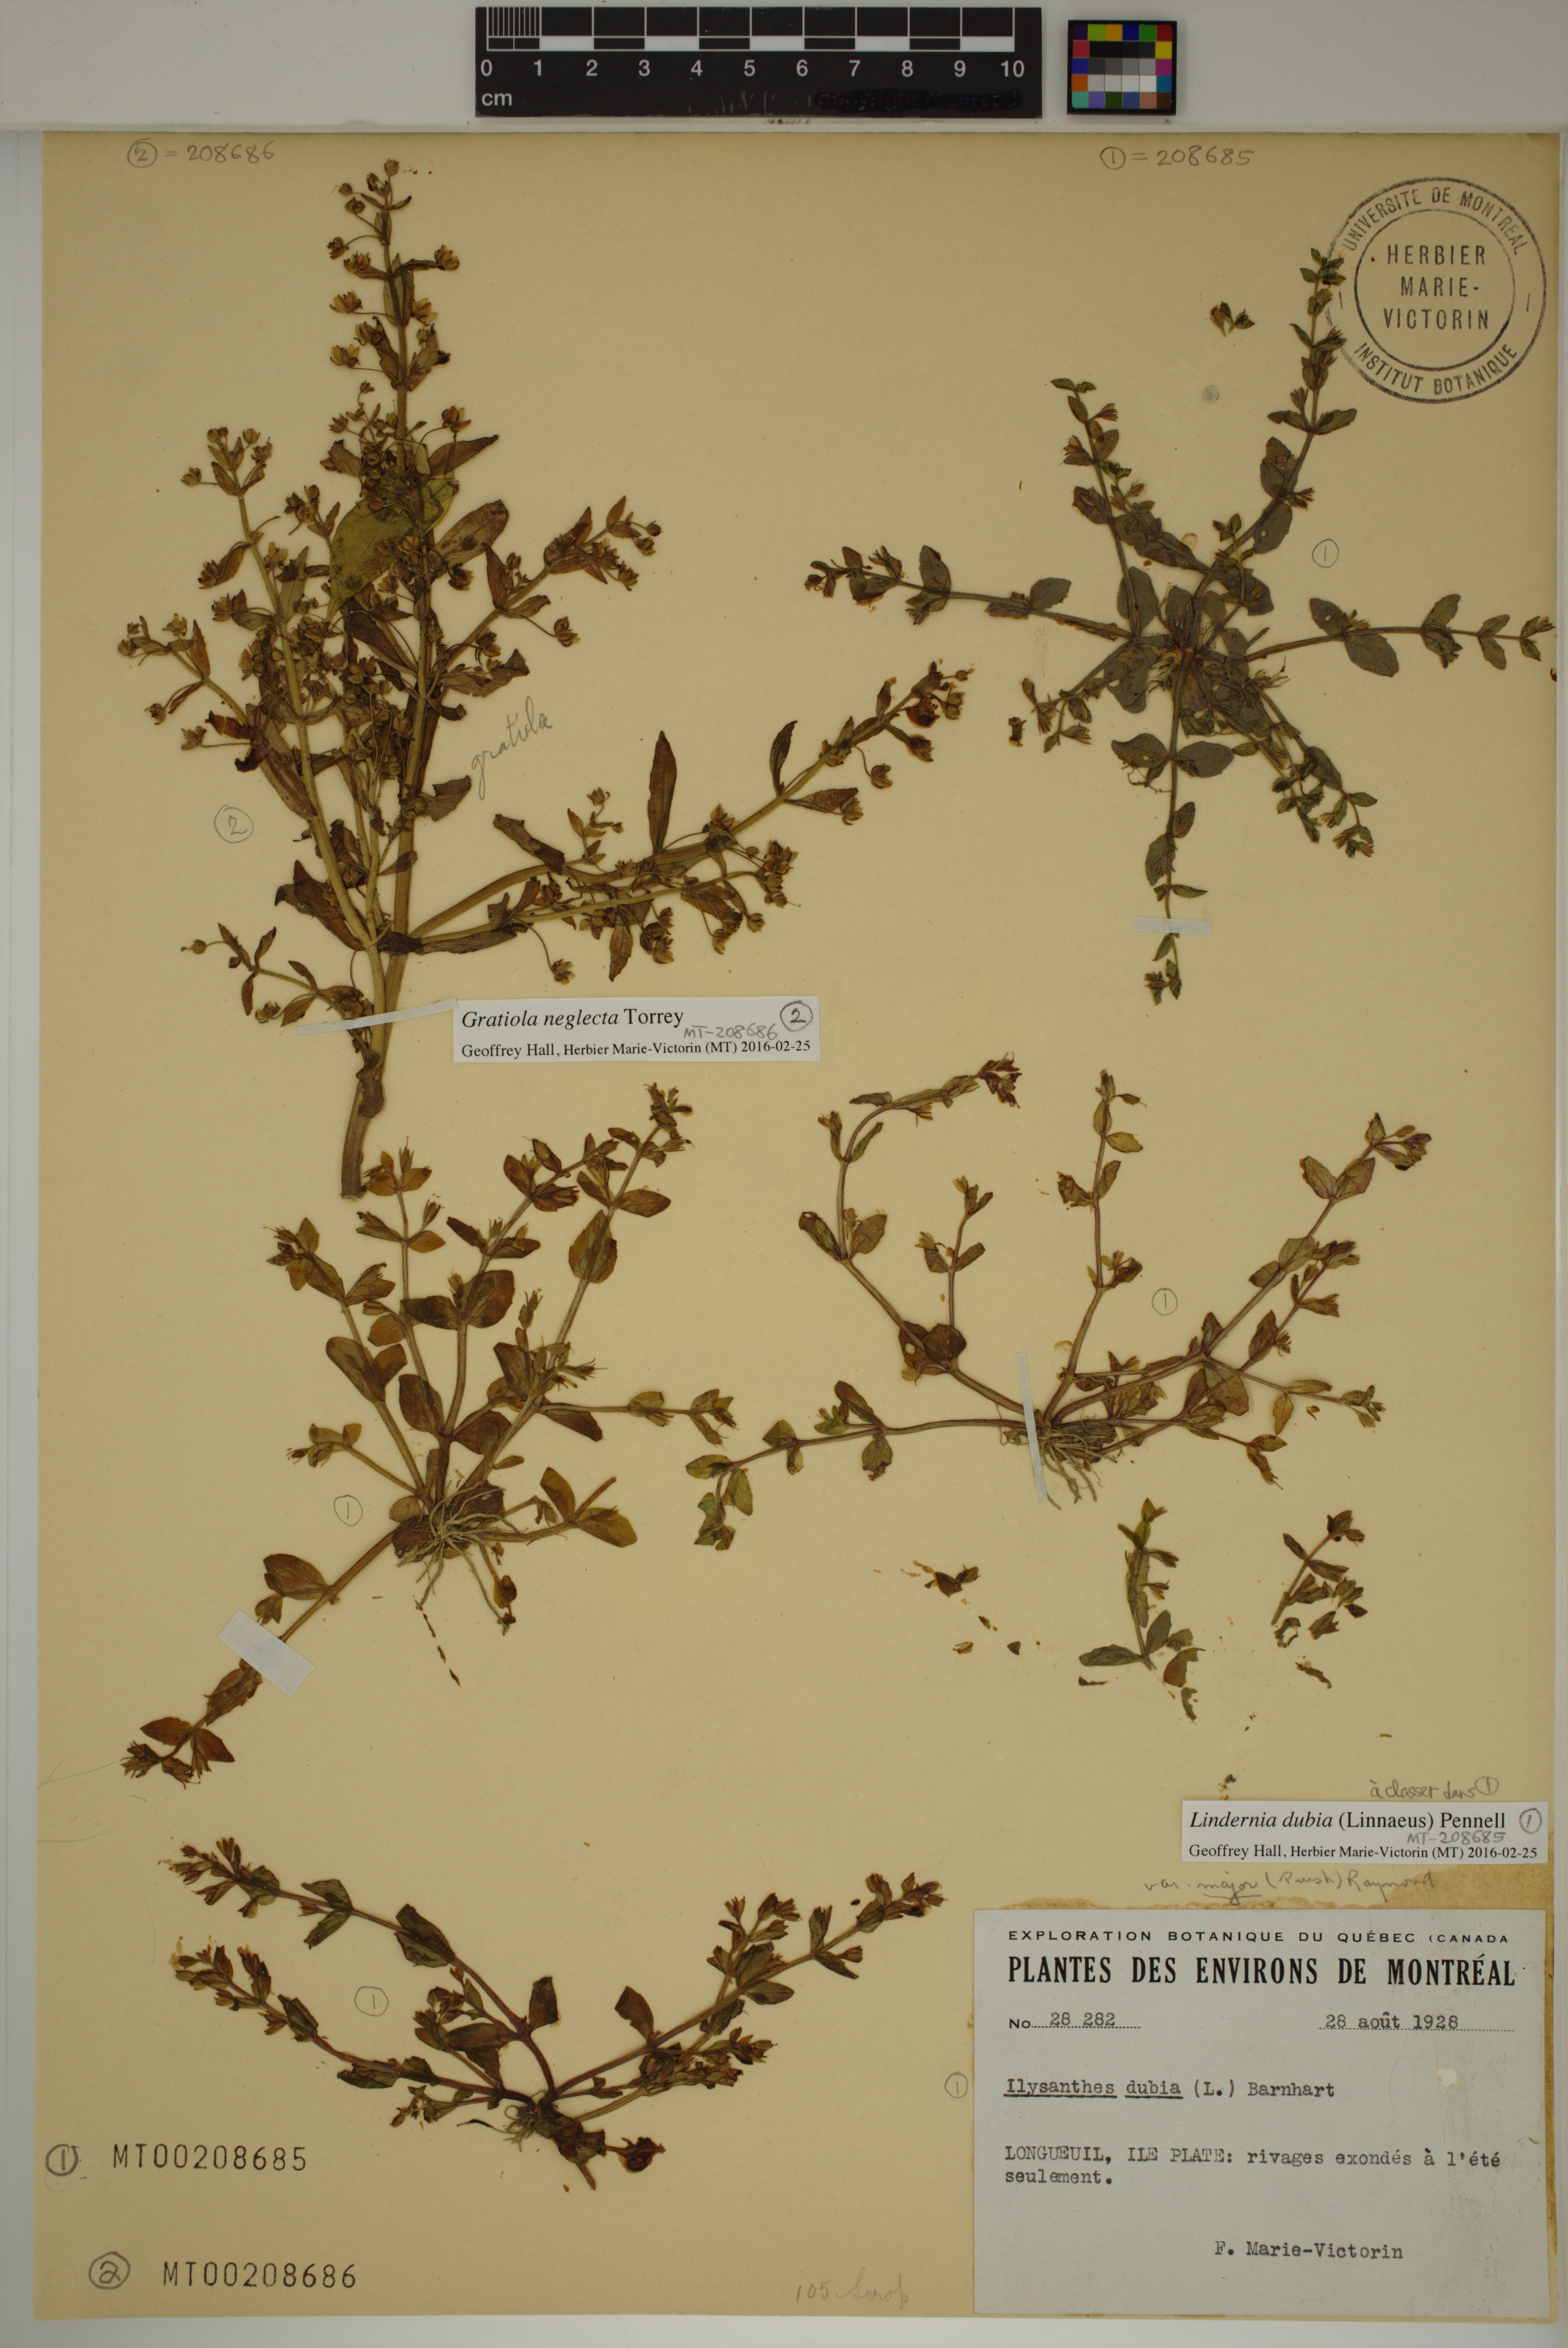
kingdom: Plantae
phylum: Tracheophyta
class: Magnoliopsida
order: Lamiales
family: Plantaginaceae
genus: Gratiola
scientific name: Gratiola neglecta
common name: American hedge-hyssop
